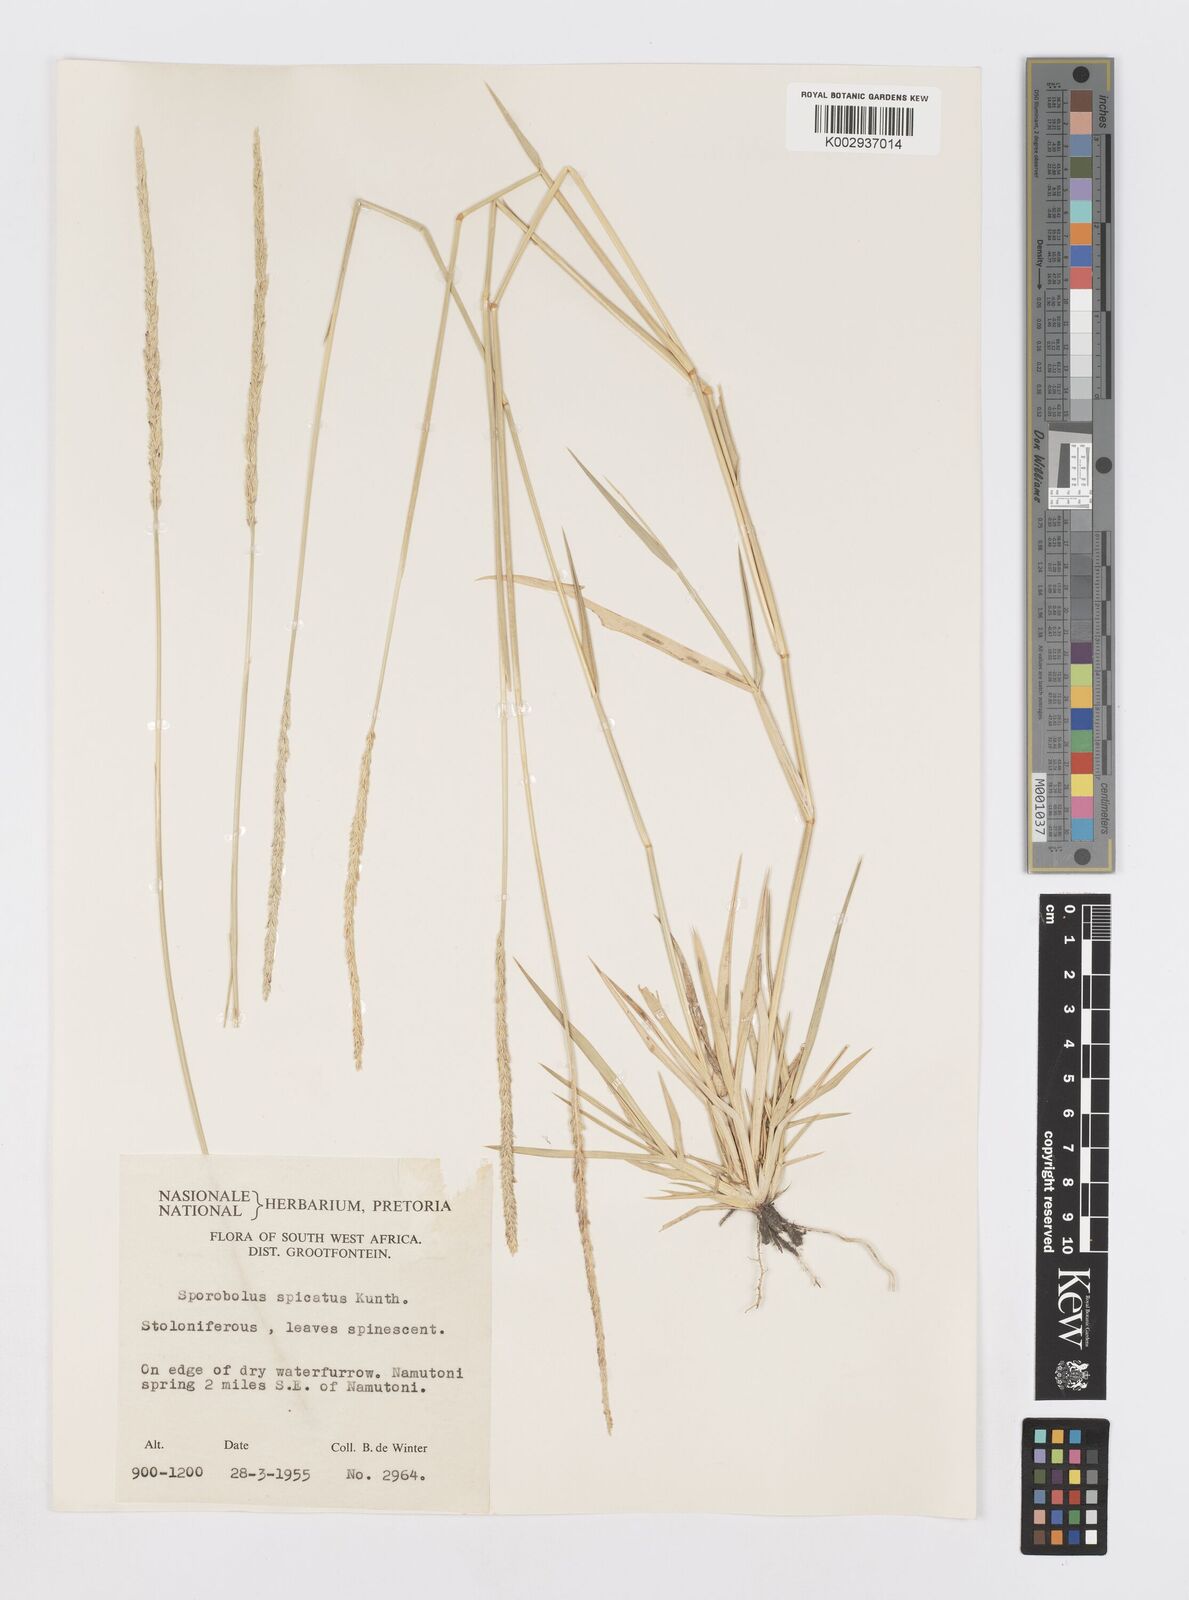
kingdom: Plantae
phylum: Tracheophyta
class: Liliopsida
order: Poales
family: Poaceae
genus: Sporobolus
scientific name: Sporobolus spicatus
